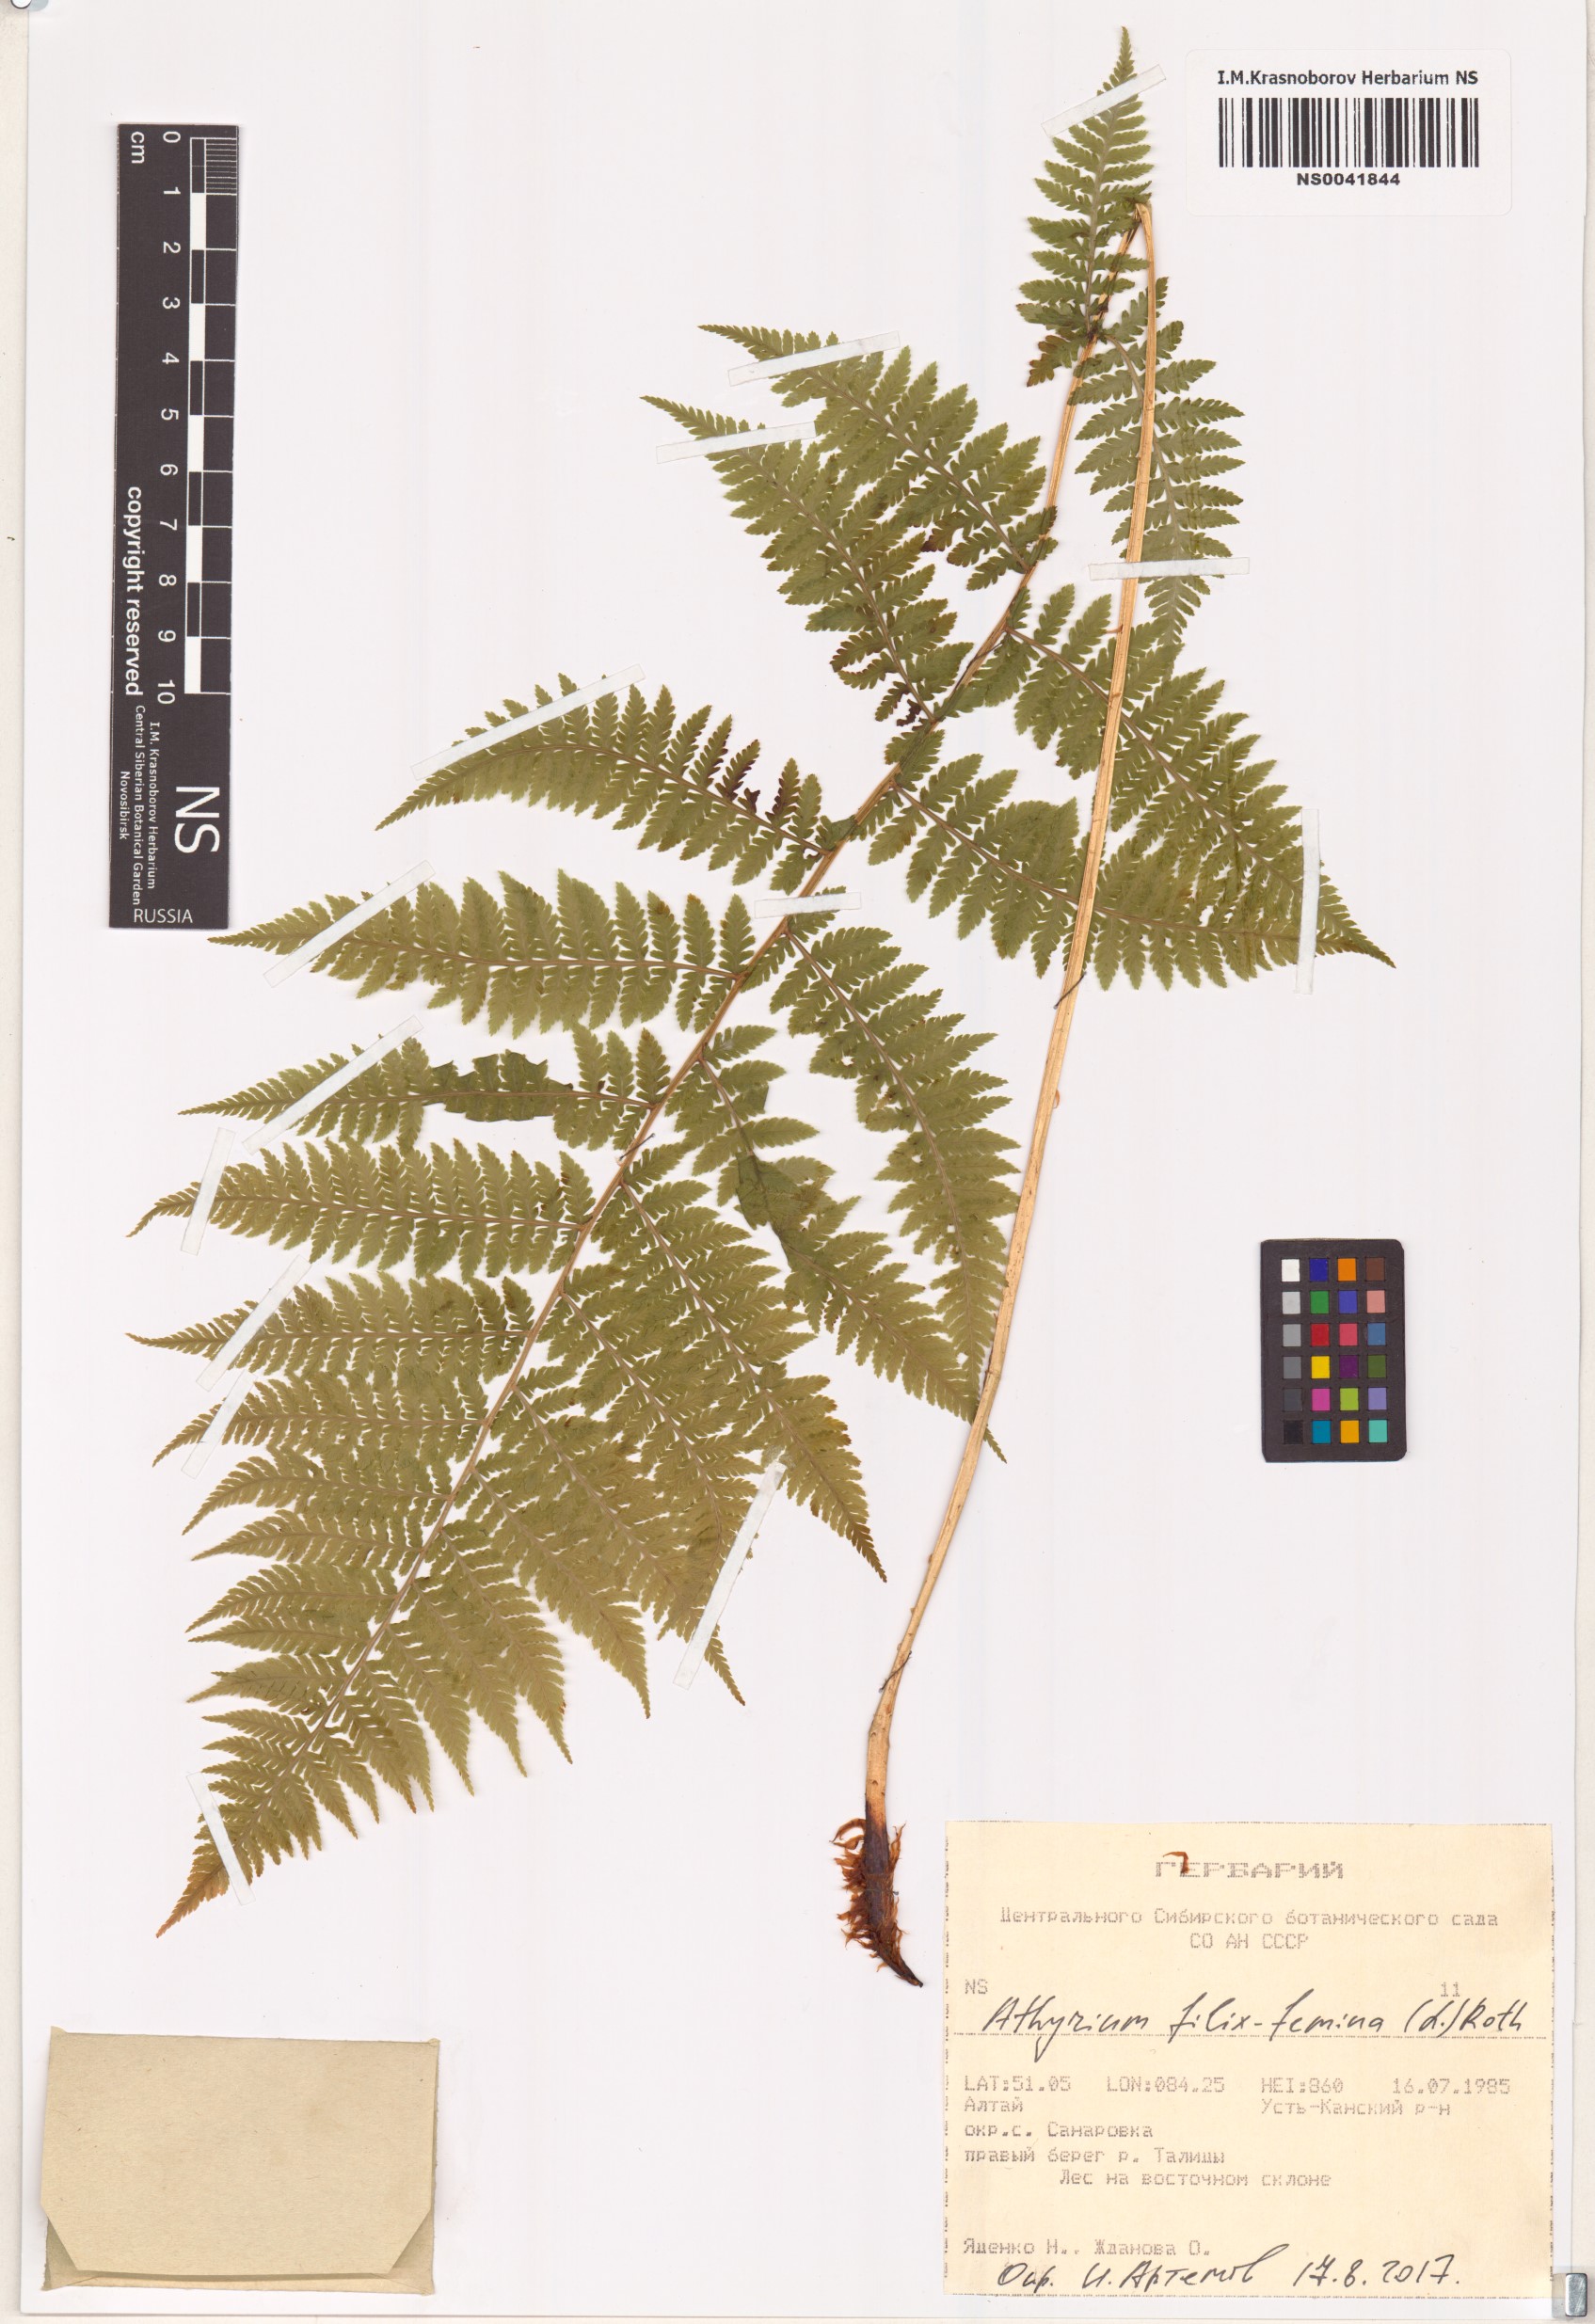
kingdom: Plantae
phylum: Tracheophyta
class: Polypodiopsida
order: Polypodiales
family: Athyriaceae
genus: Athyrium
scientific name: Athyrium filix-femina
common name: Lady fern
